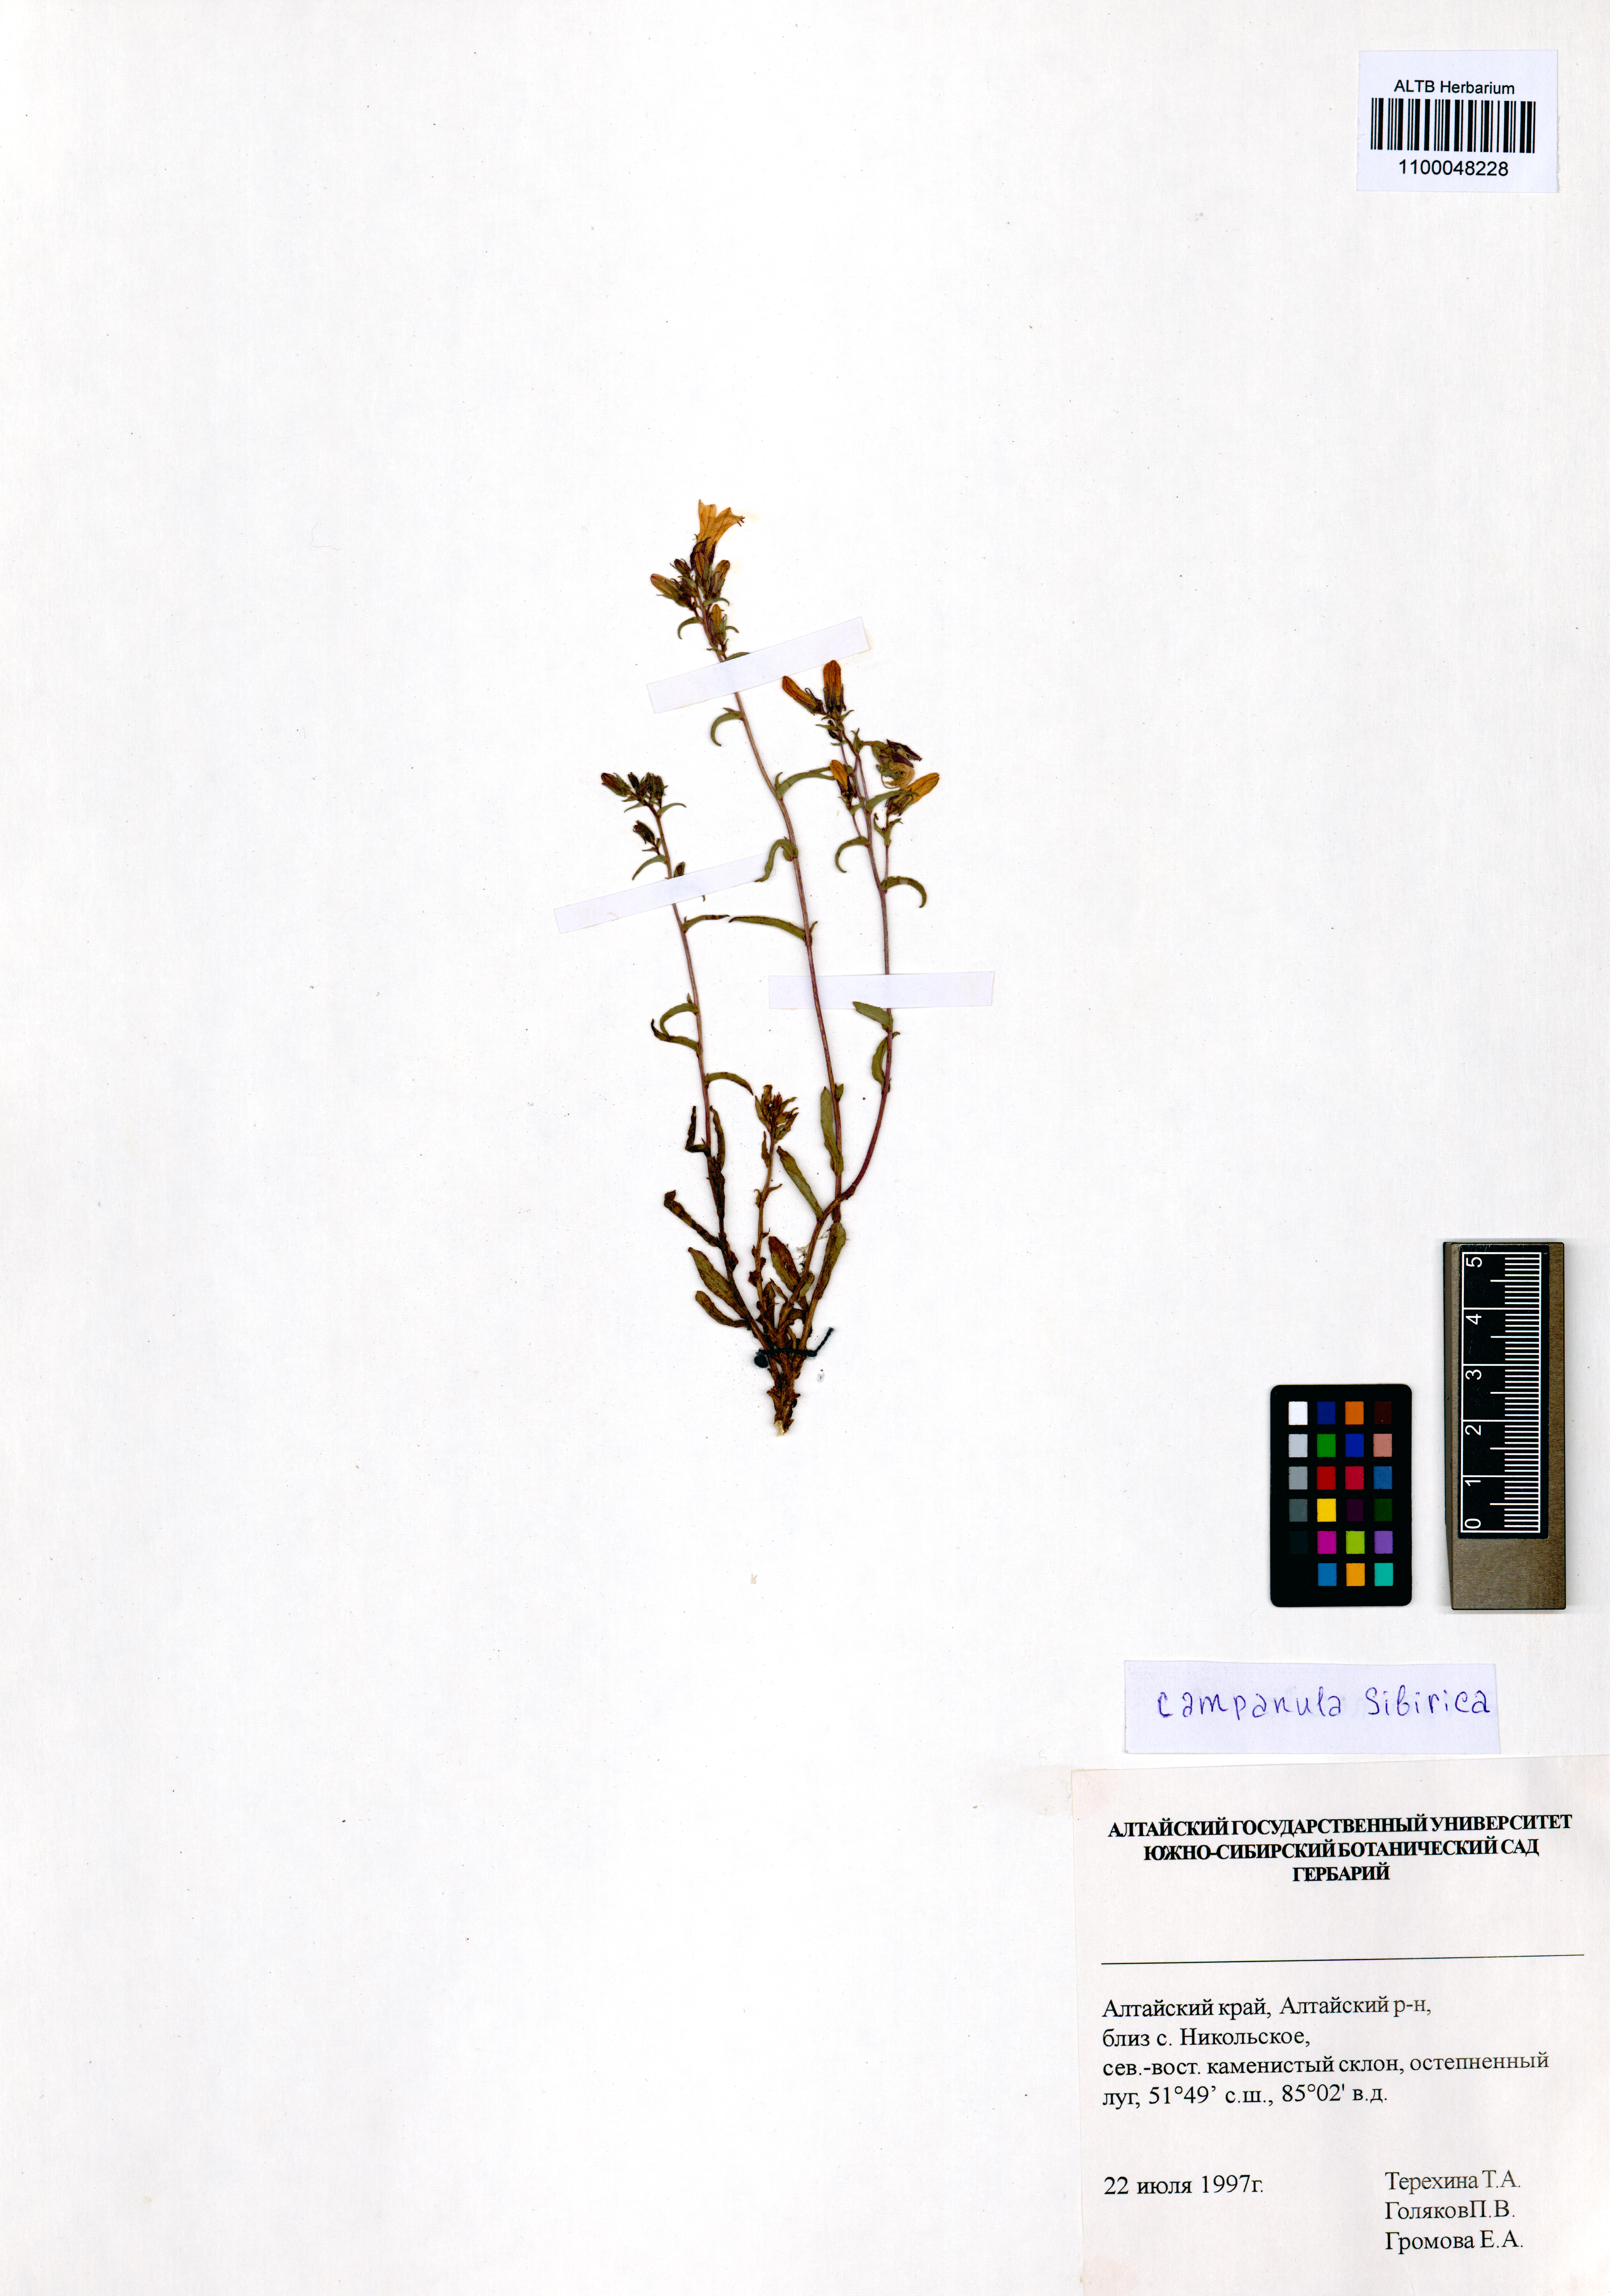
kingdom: Plantae
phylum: Tracheophyta
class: Magnoliopsida
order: Asterales
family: Campanulaceae
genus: Campanula
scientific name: Campanula sibirica
